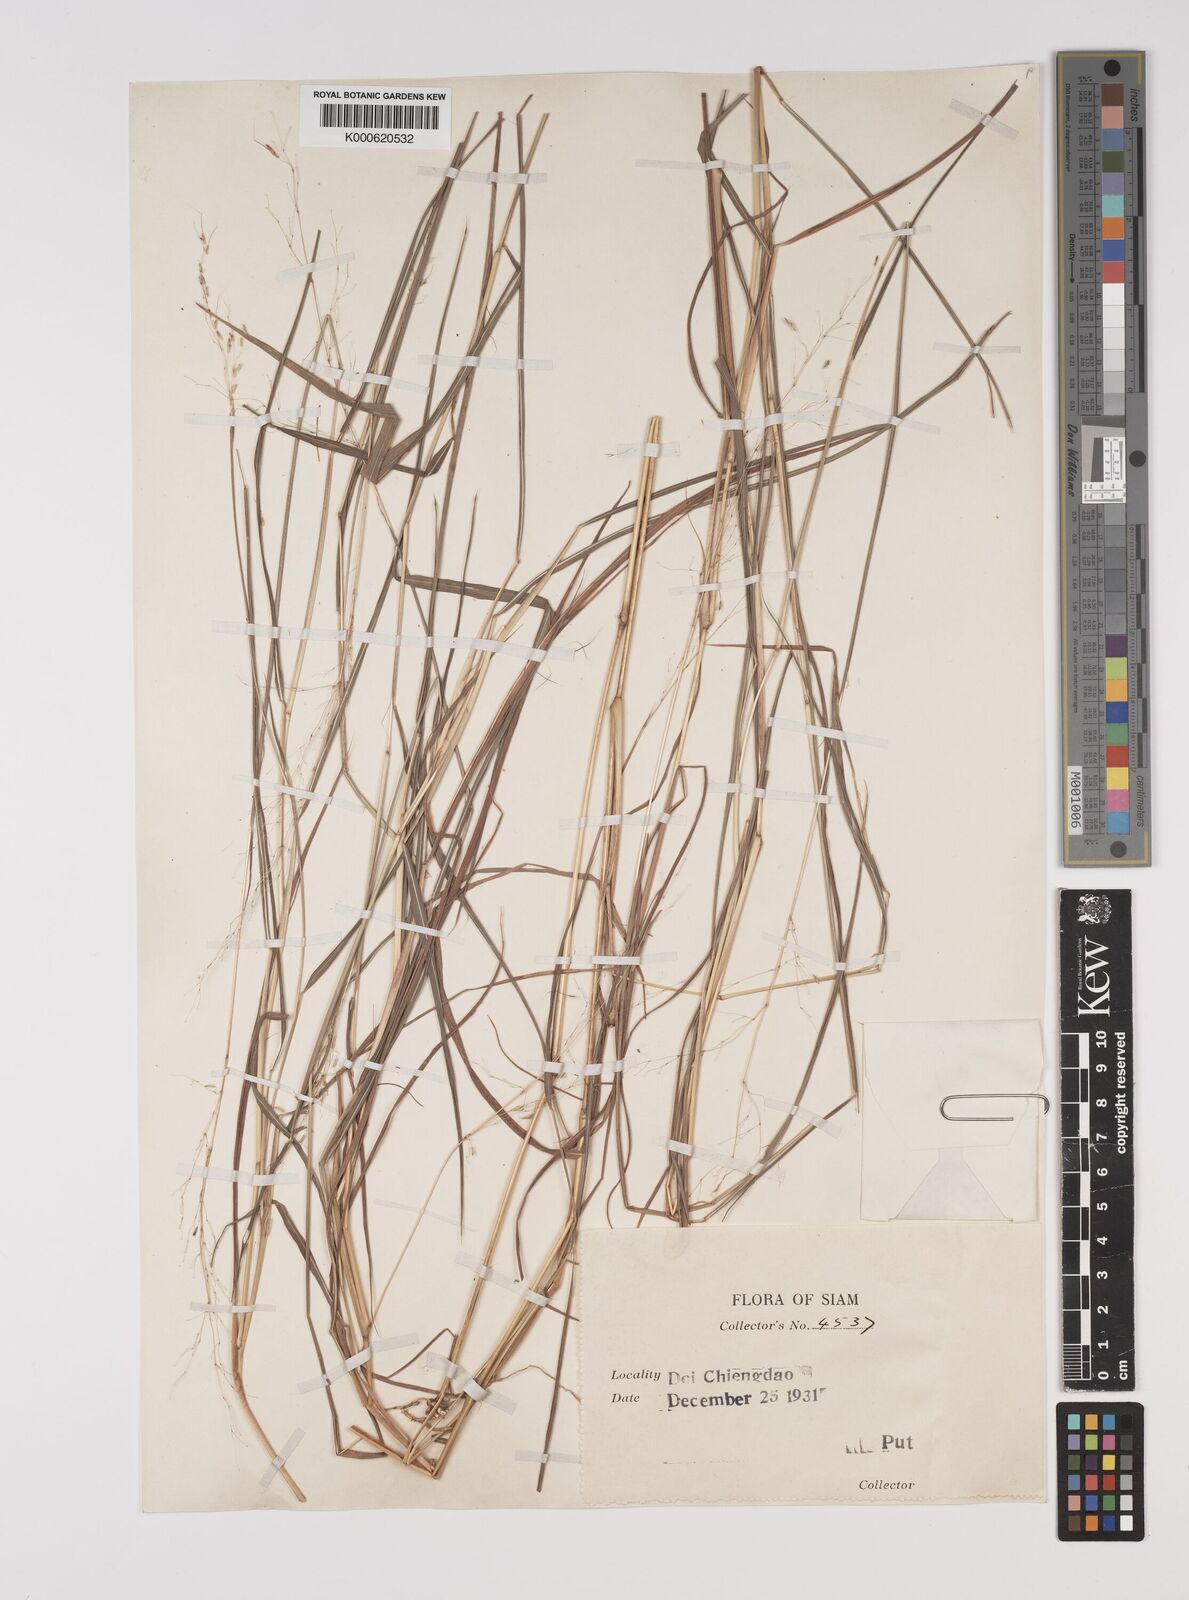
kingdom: Plantae
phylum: Tracheophyta
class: Liliopsida
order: Poales
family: Poaceae
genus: Capillipedium
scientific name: Capillipedium parviflorum
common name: Golden-beard
